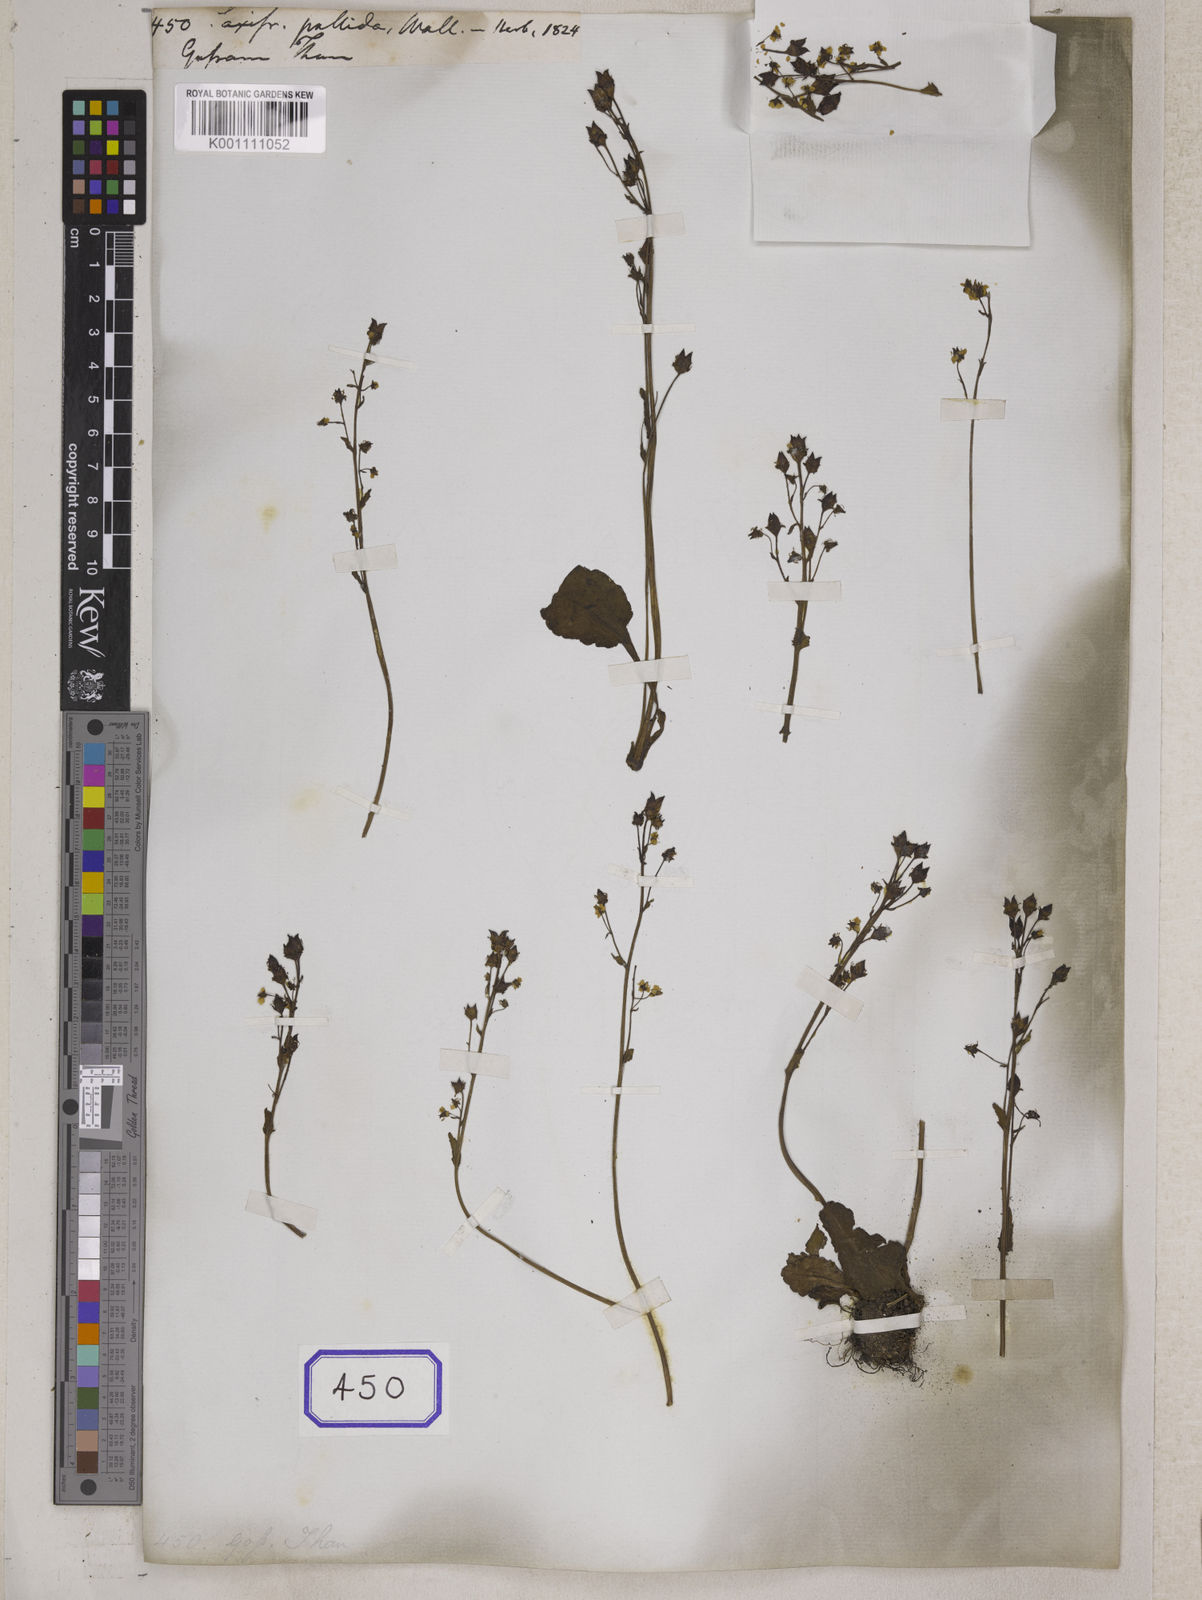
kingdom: Plantae
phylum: Tracheophyta
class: Magnoliopsida
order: Saxifragales
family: Saxifragaceae
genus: Saxifraga
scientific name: Saxifraga
